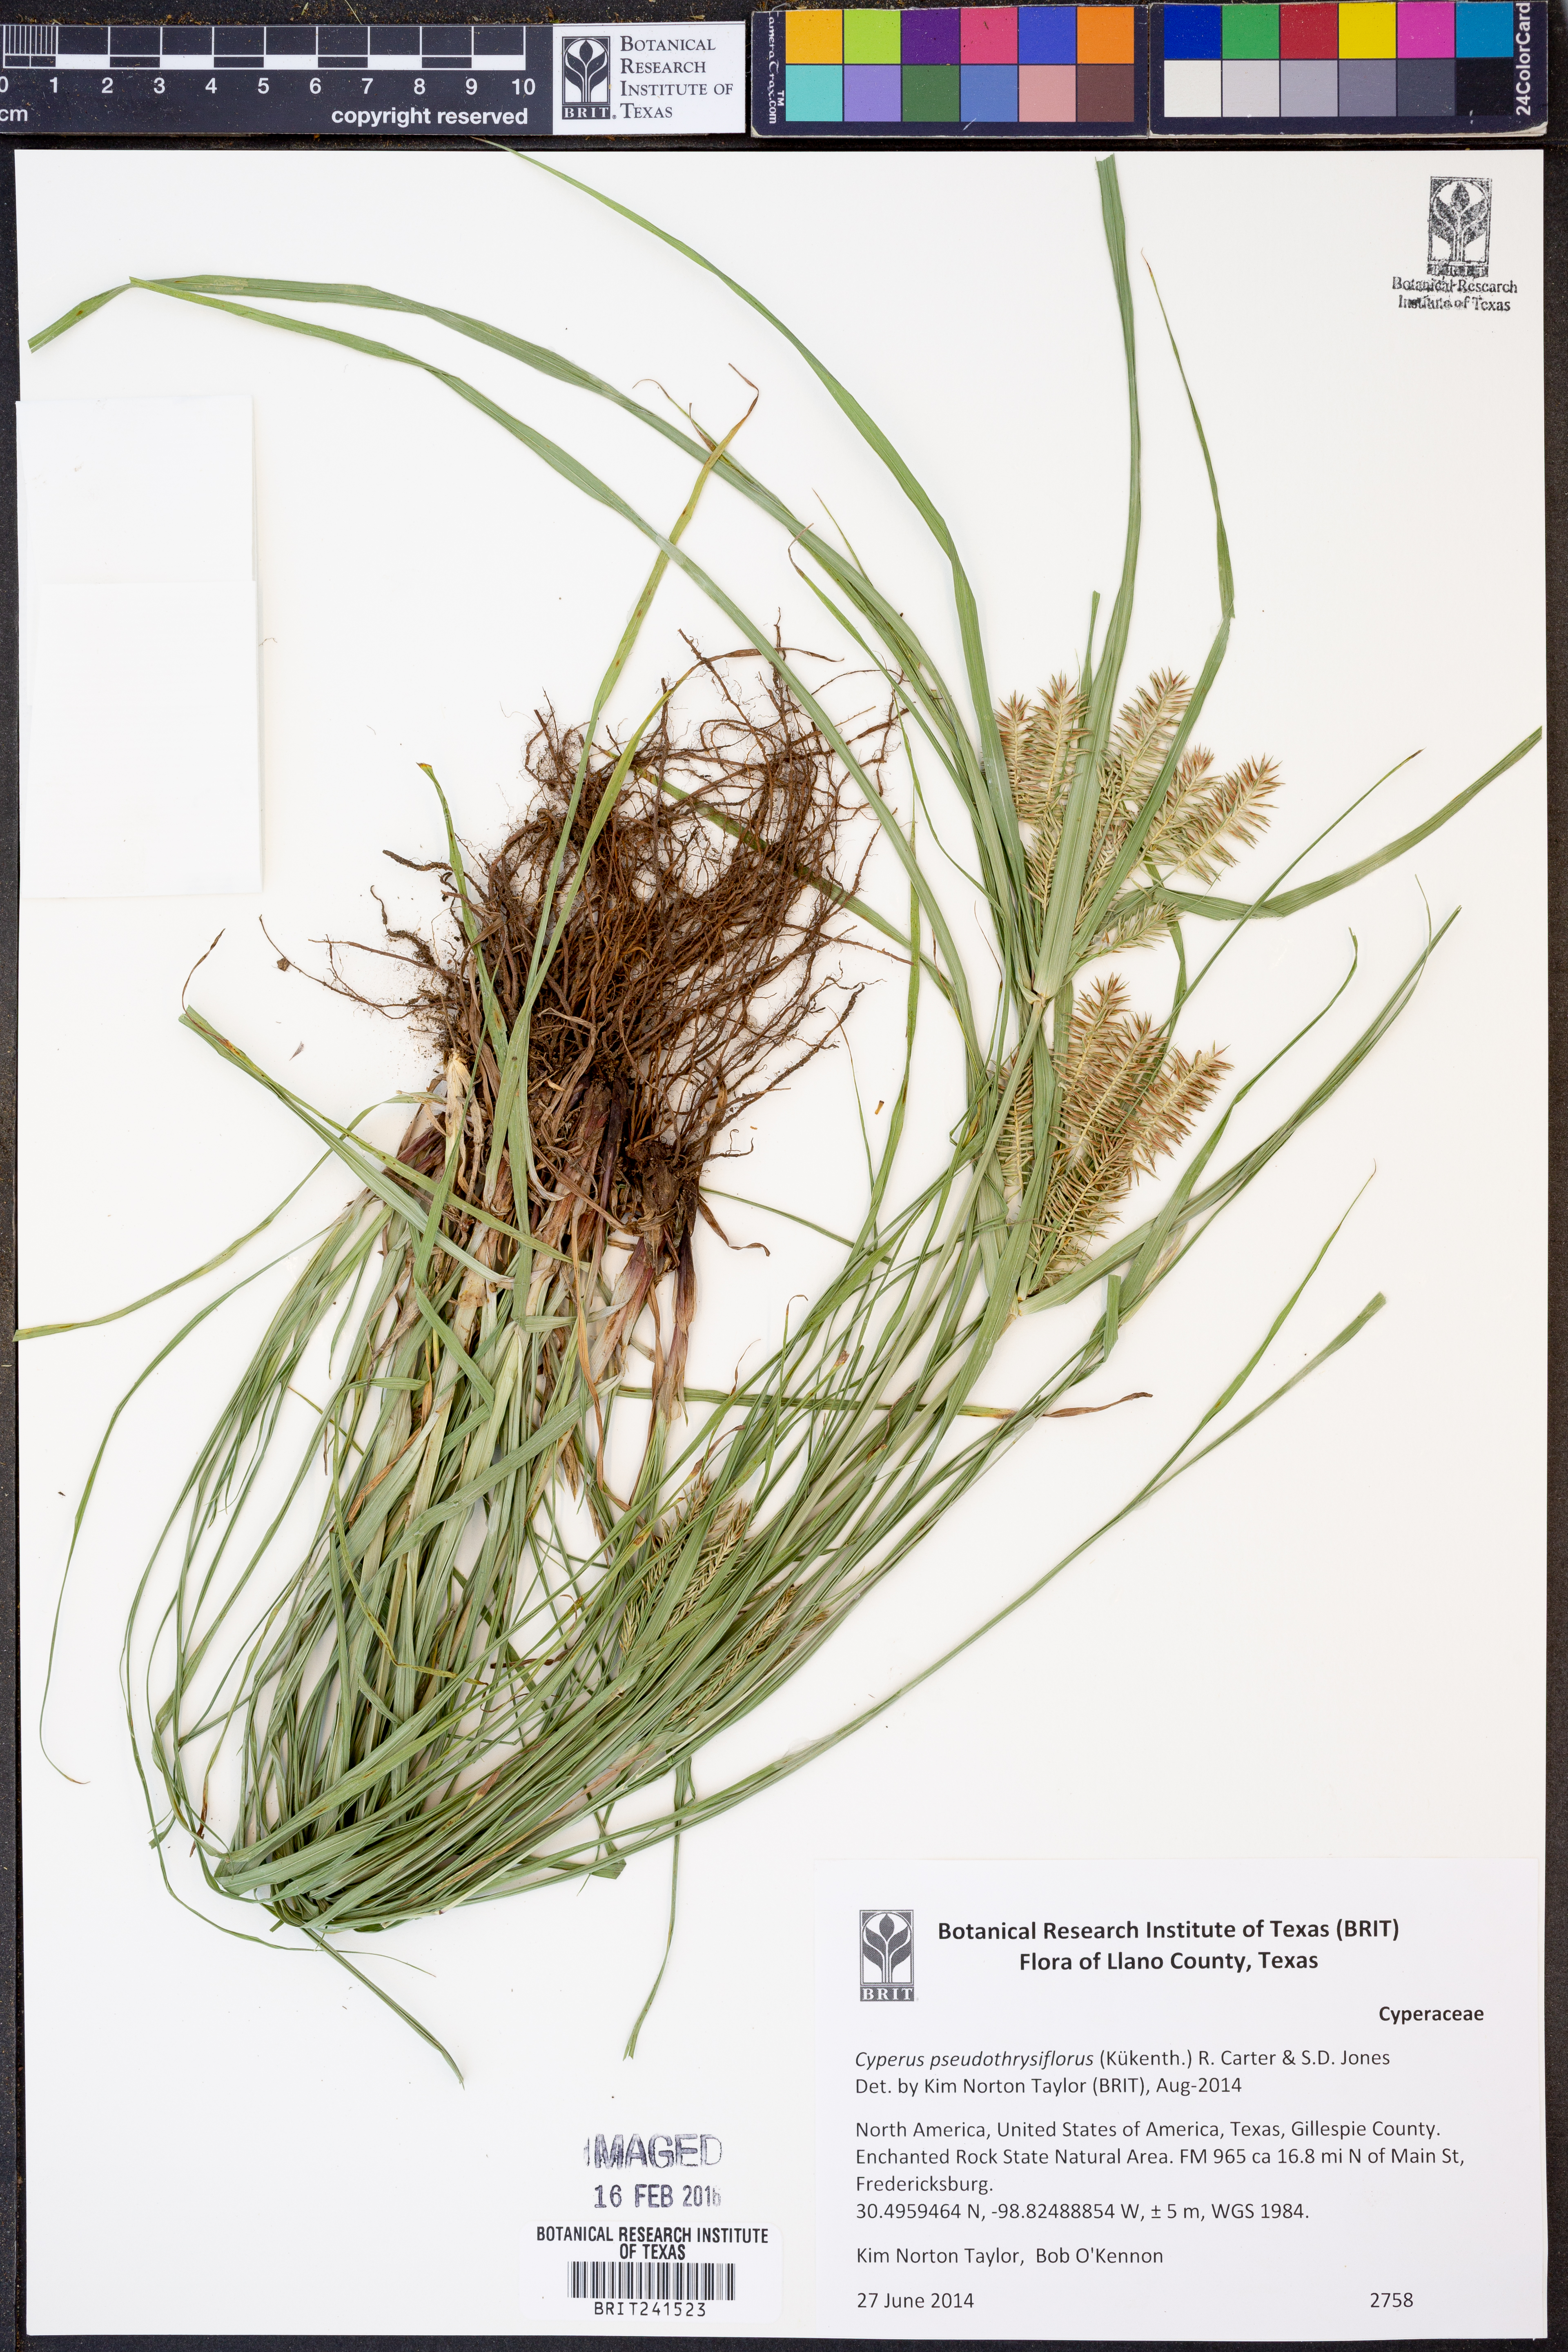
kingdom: Plantae
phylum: Tracheophyta
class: Liliopsida
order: Poales
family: Cyperaceae
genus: Cyperus
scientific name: Cyperus pseudothyrsiflorus
